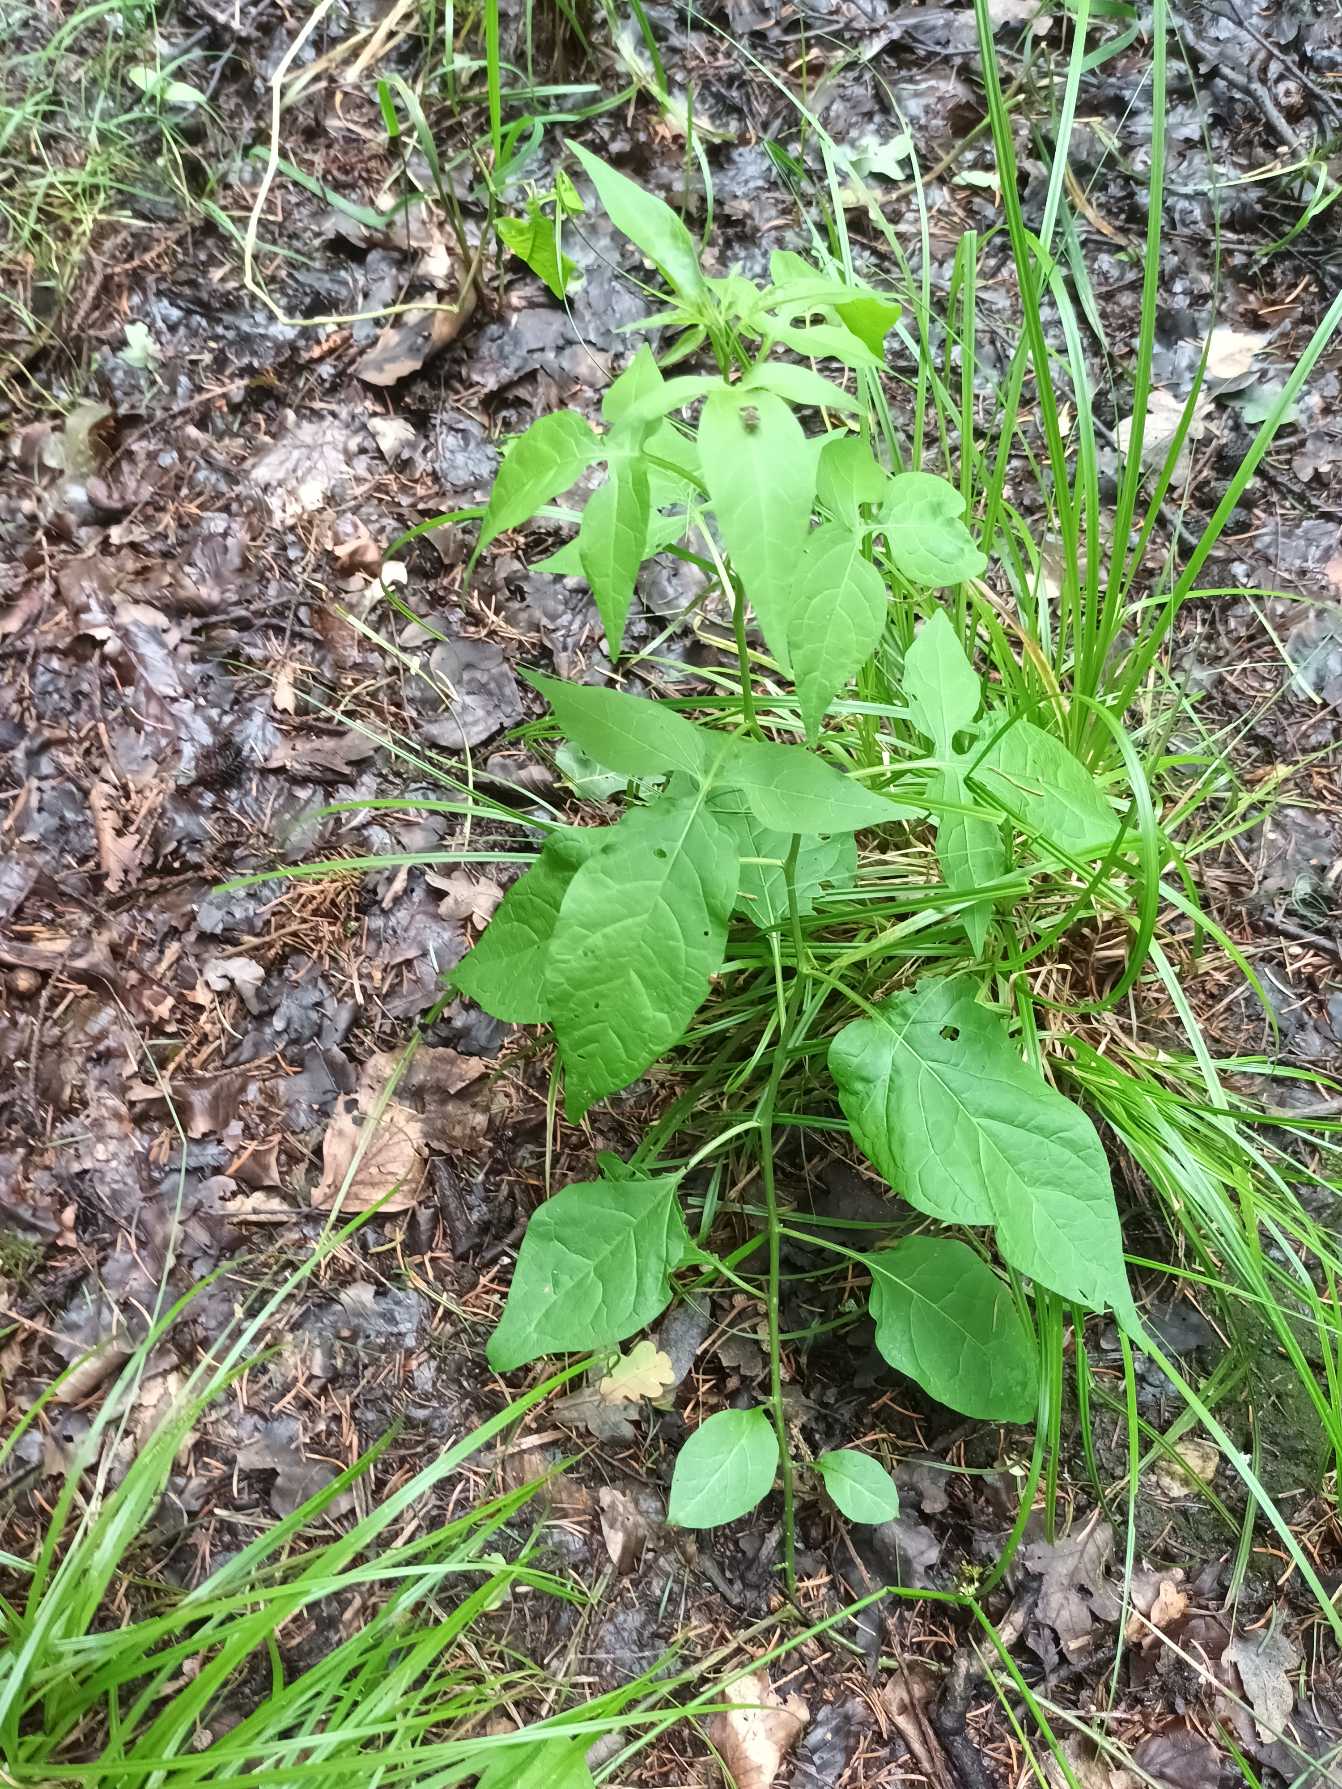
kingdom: Plantae
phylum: Tracheophyta
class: Magnoliopsida
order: Solanales
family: Solanaceae
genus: Solanum
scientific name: Solanum dulcamara
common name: Bittersød natskygge
